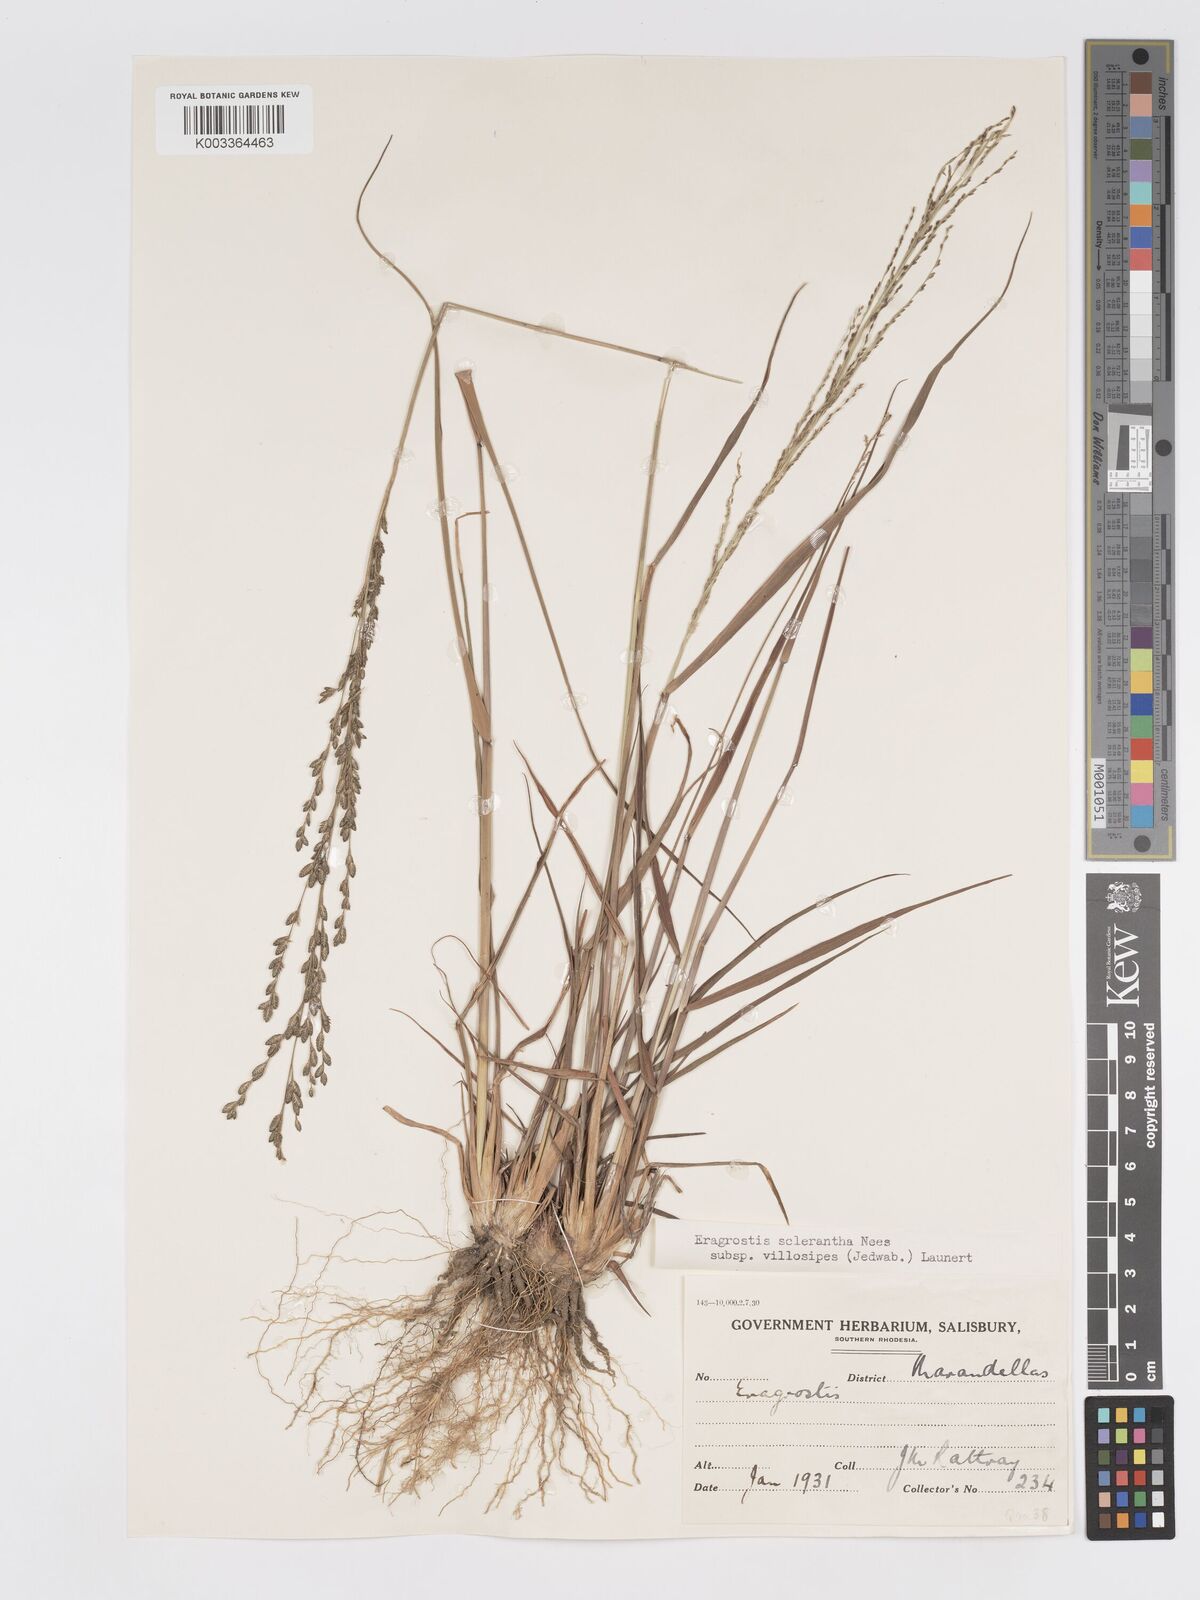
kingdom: Plantae
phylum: Tracheophyta
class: Liliopsida
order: Poales
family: Poaceae
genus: Eragrostis
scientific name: Eragrostis sclerantha
